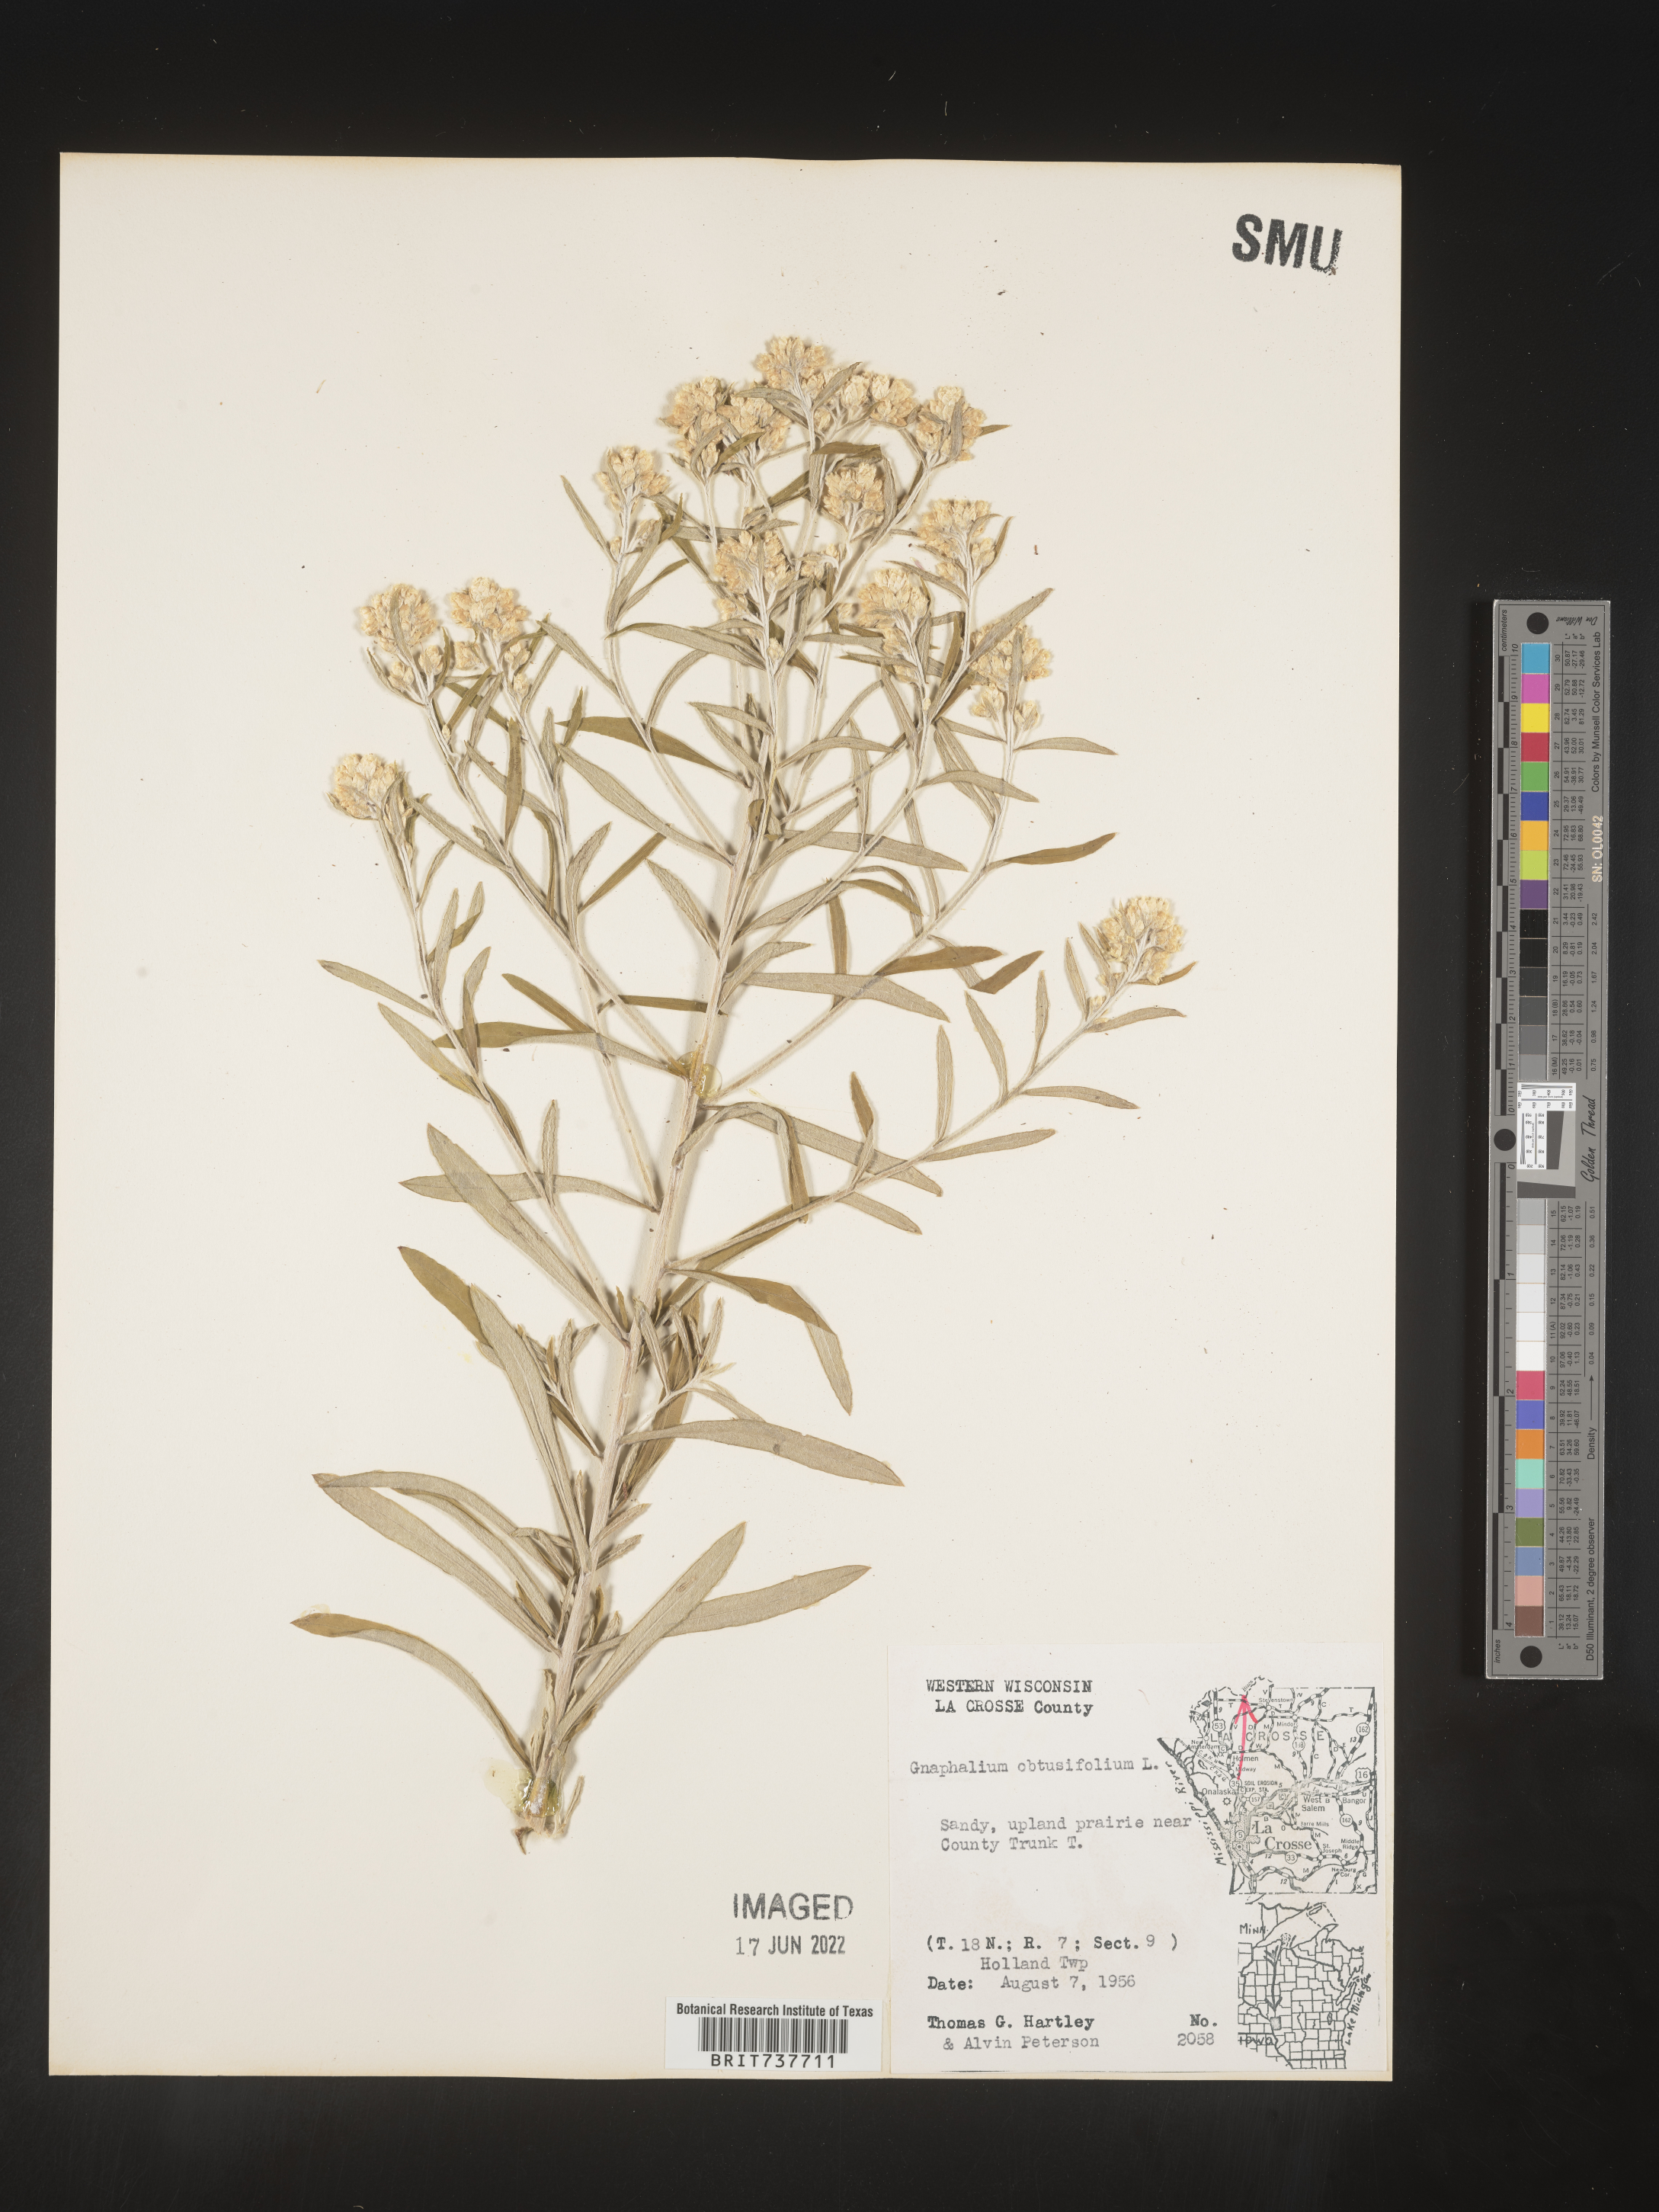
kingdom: Plantae
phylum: Tracheophyta
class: Magnoliopsida
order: Asterales
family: Asteraceae
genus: Pseudognaphalium
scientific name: Pseudognaphalium obtusifolium
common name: Eastern rabbit-tobacco
